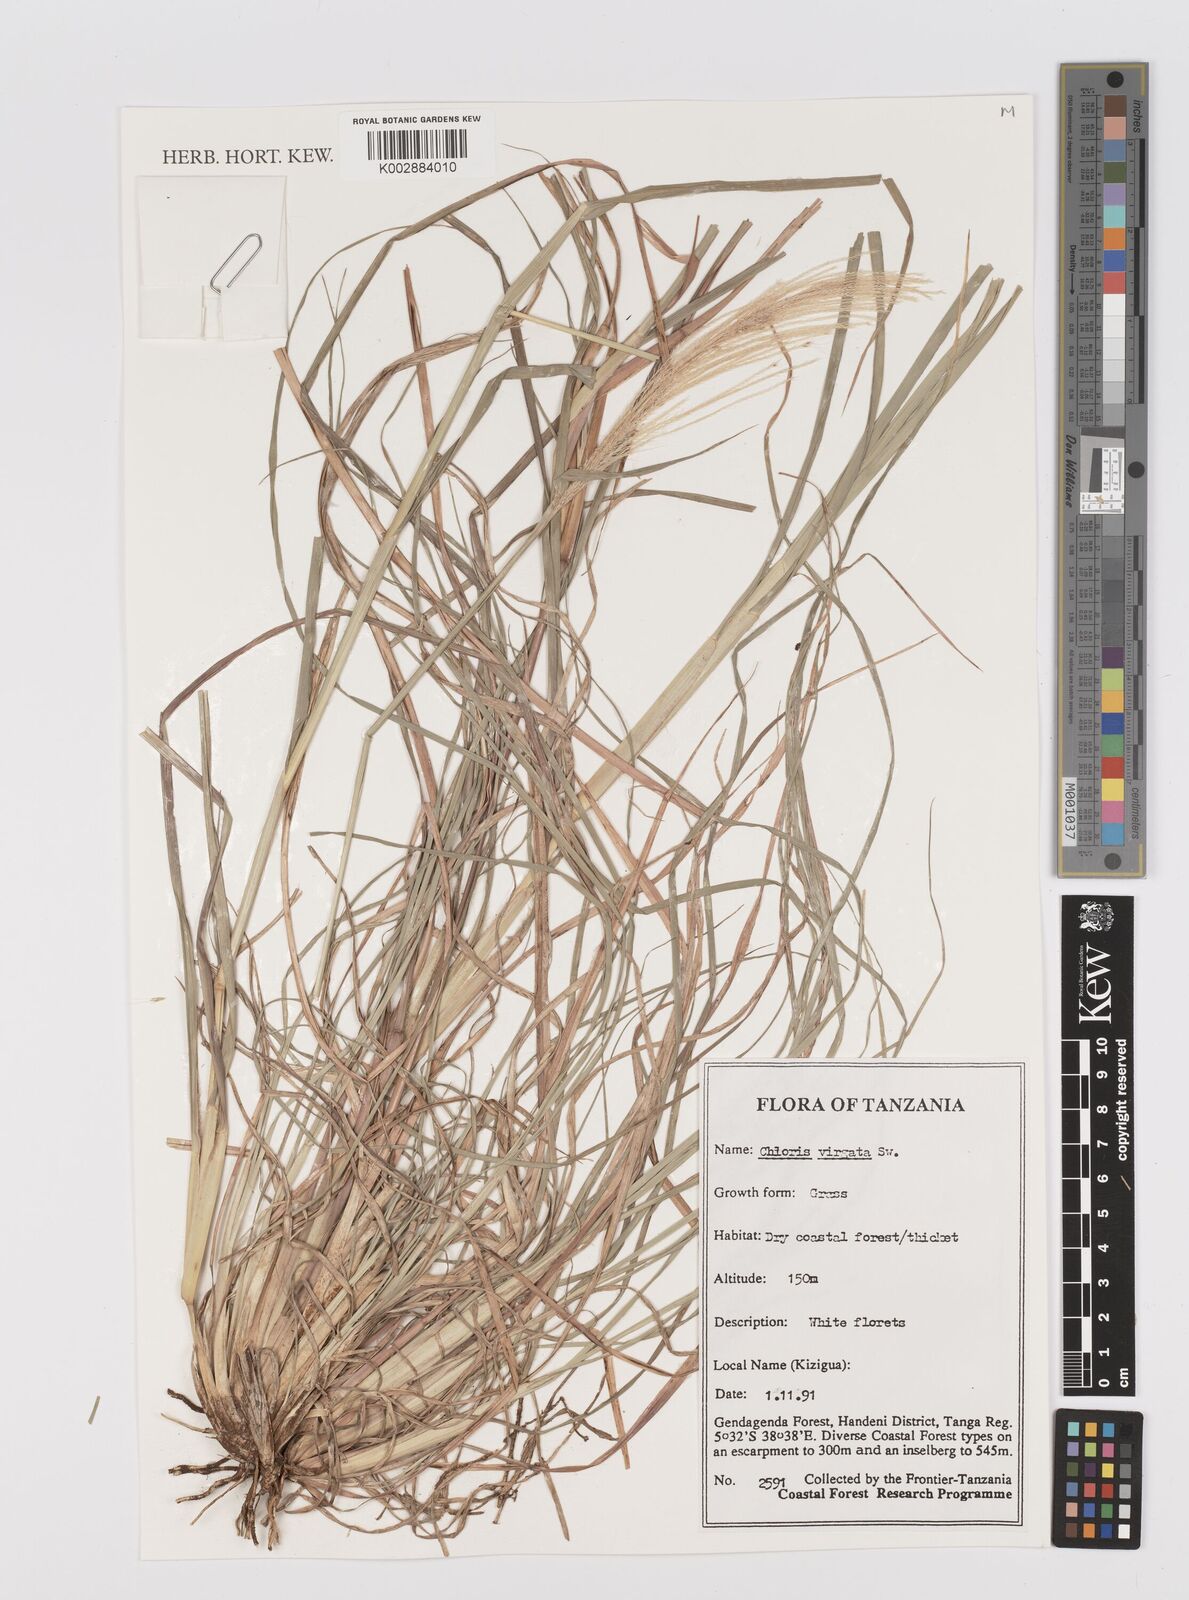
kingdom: Plantae
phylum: Tracheophyta
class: Liliopsida
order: Poales
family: Poaceae
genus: Chloris
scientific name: Chloris virgata
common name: Feathery rhodes-grass
